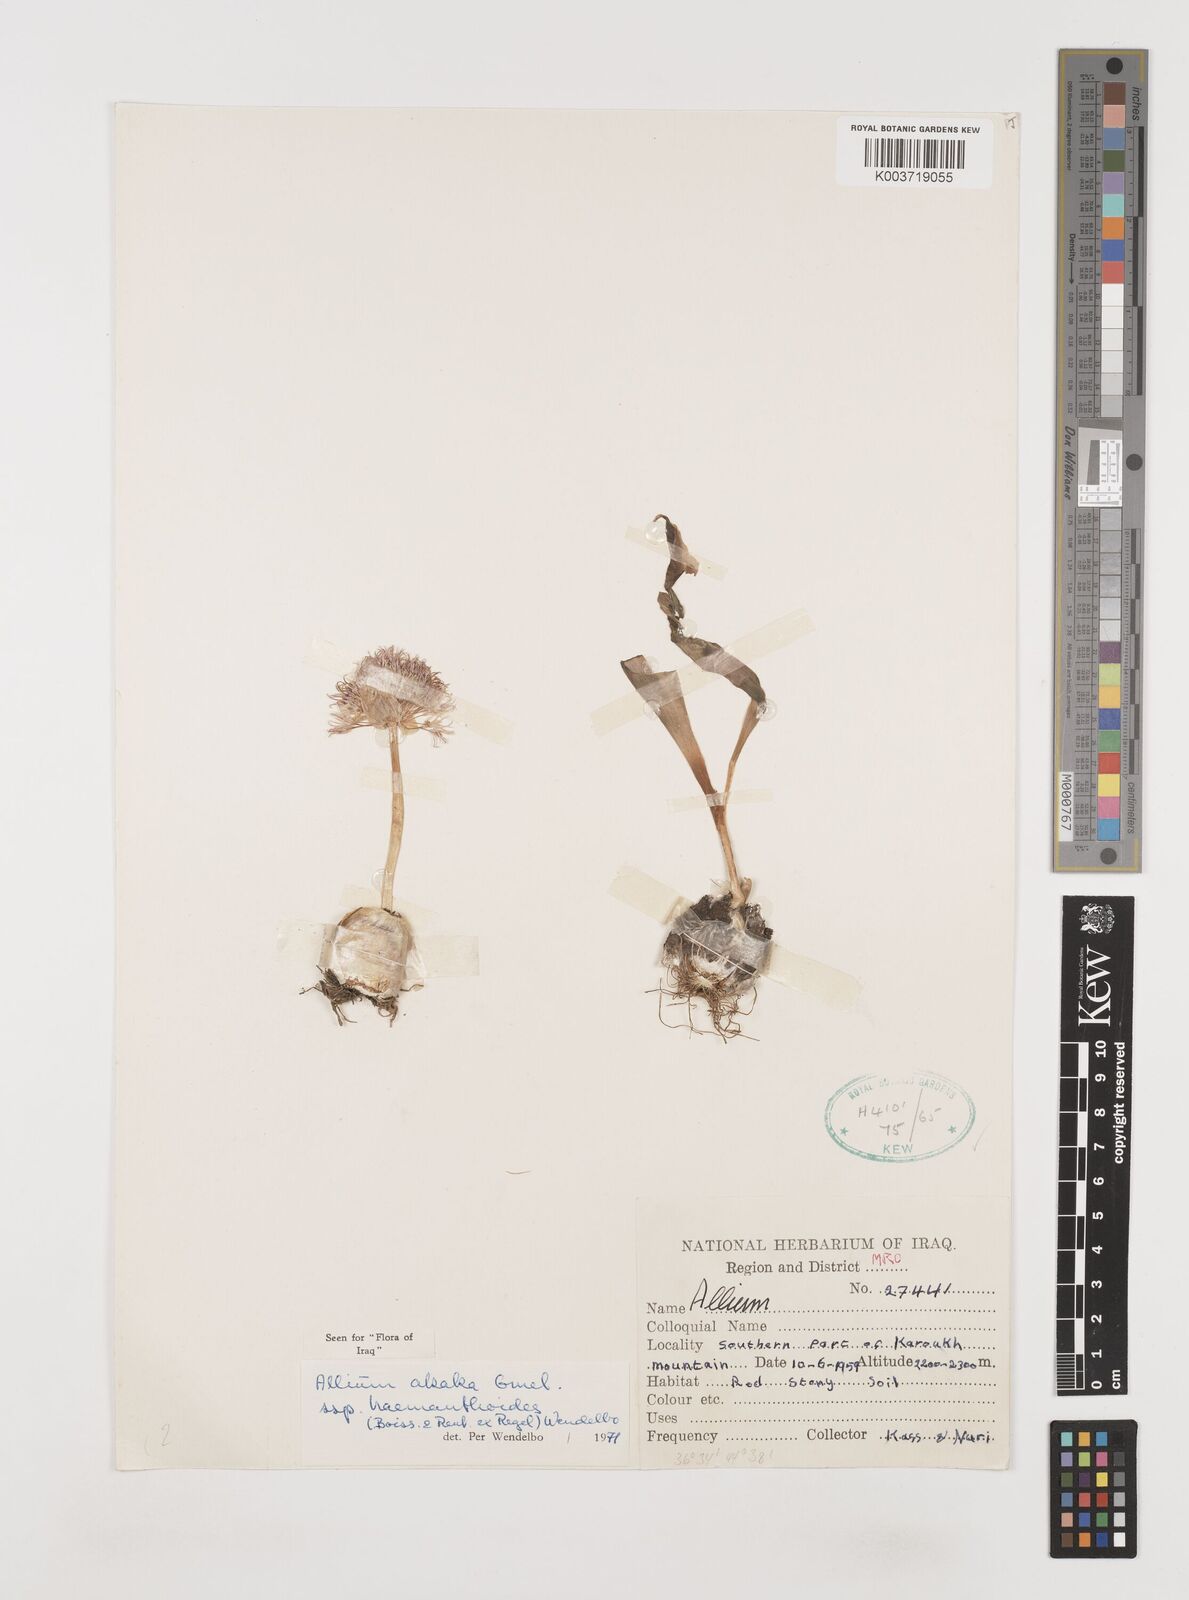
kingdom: Plantae
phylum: Tracheophyta
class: Liliopsida
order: Asparagales
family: Amaryllidaceae
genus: Allium
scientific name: Allium haemanthoides
